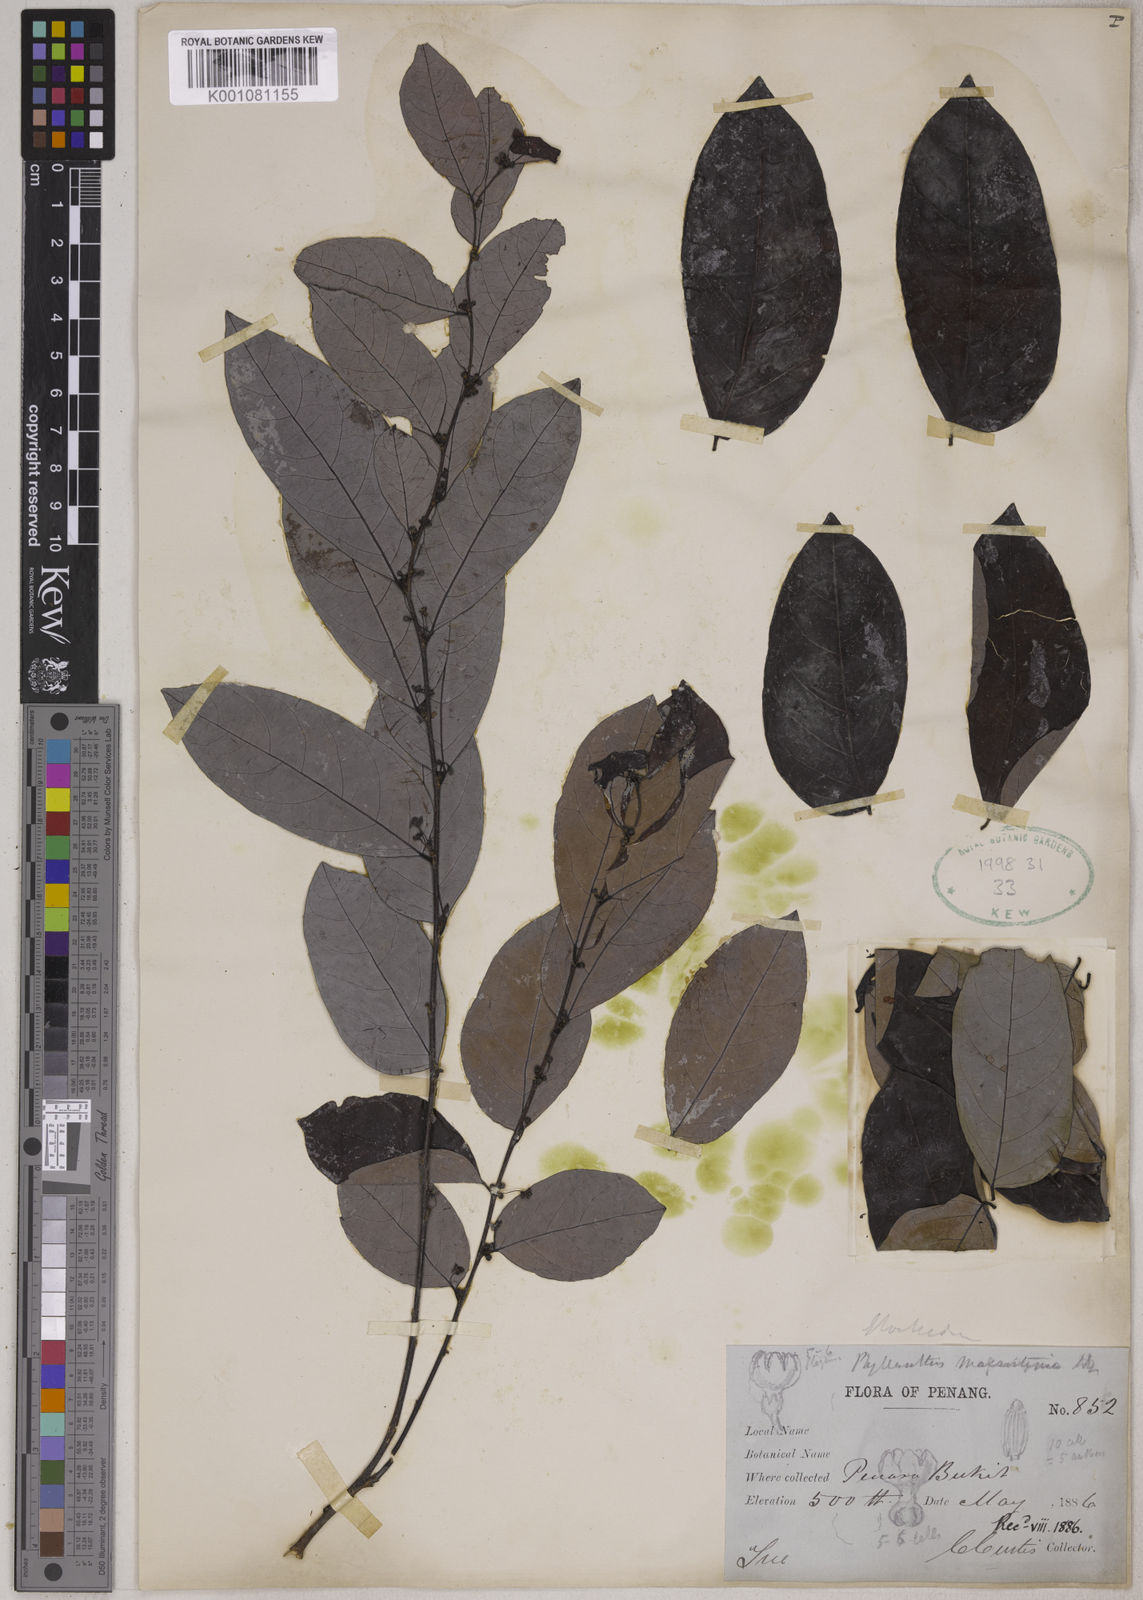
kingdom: Plantae
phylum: Tracheophyta
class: Magnoliopsida
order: Malpighiales
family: Phyllanthaceae
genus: Glochidion
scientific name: Glochidion macrostigma
